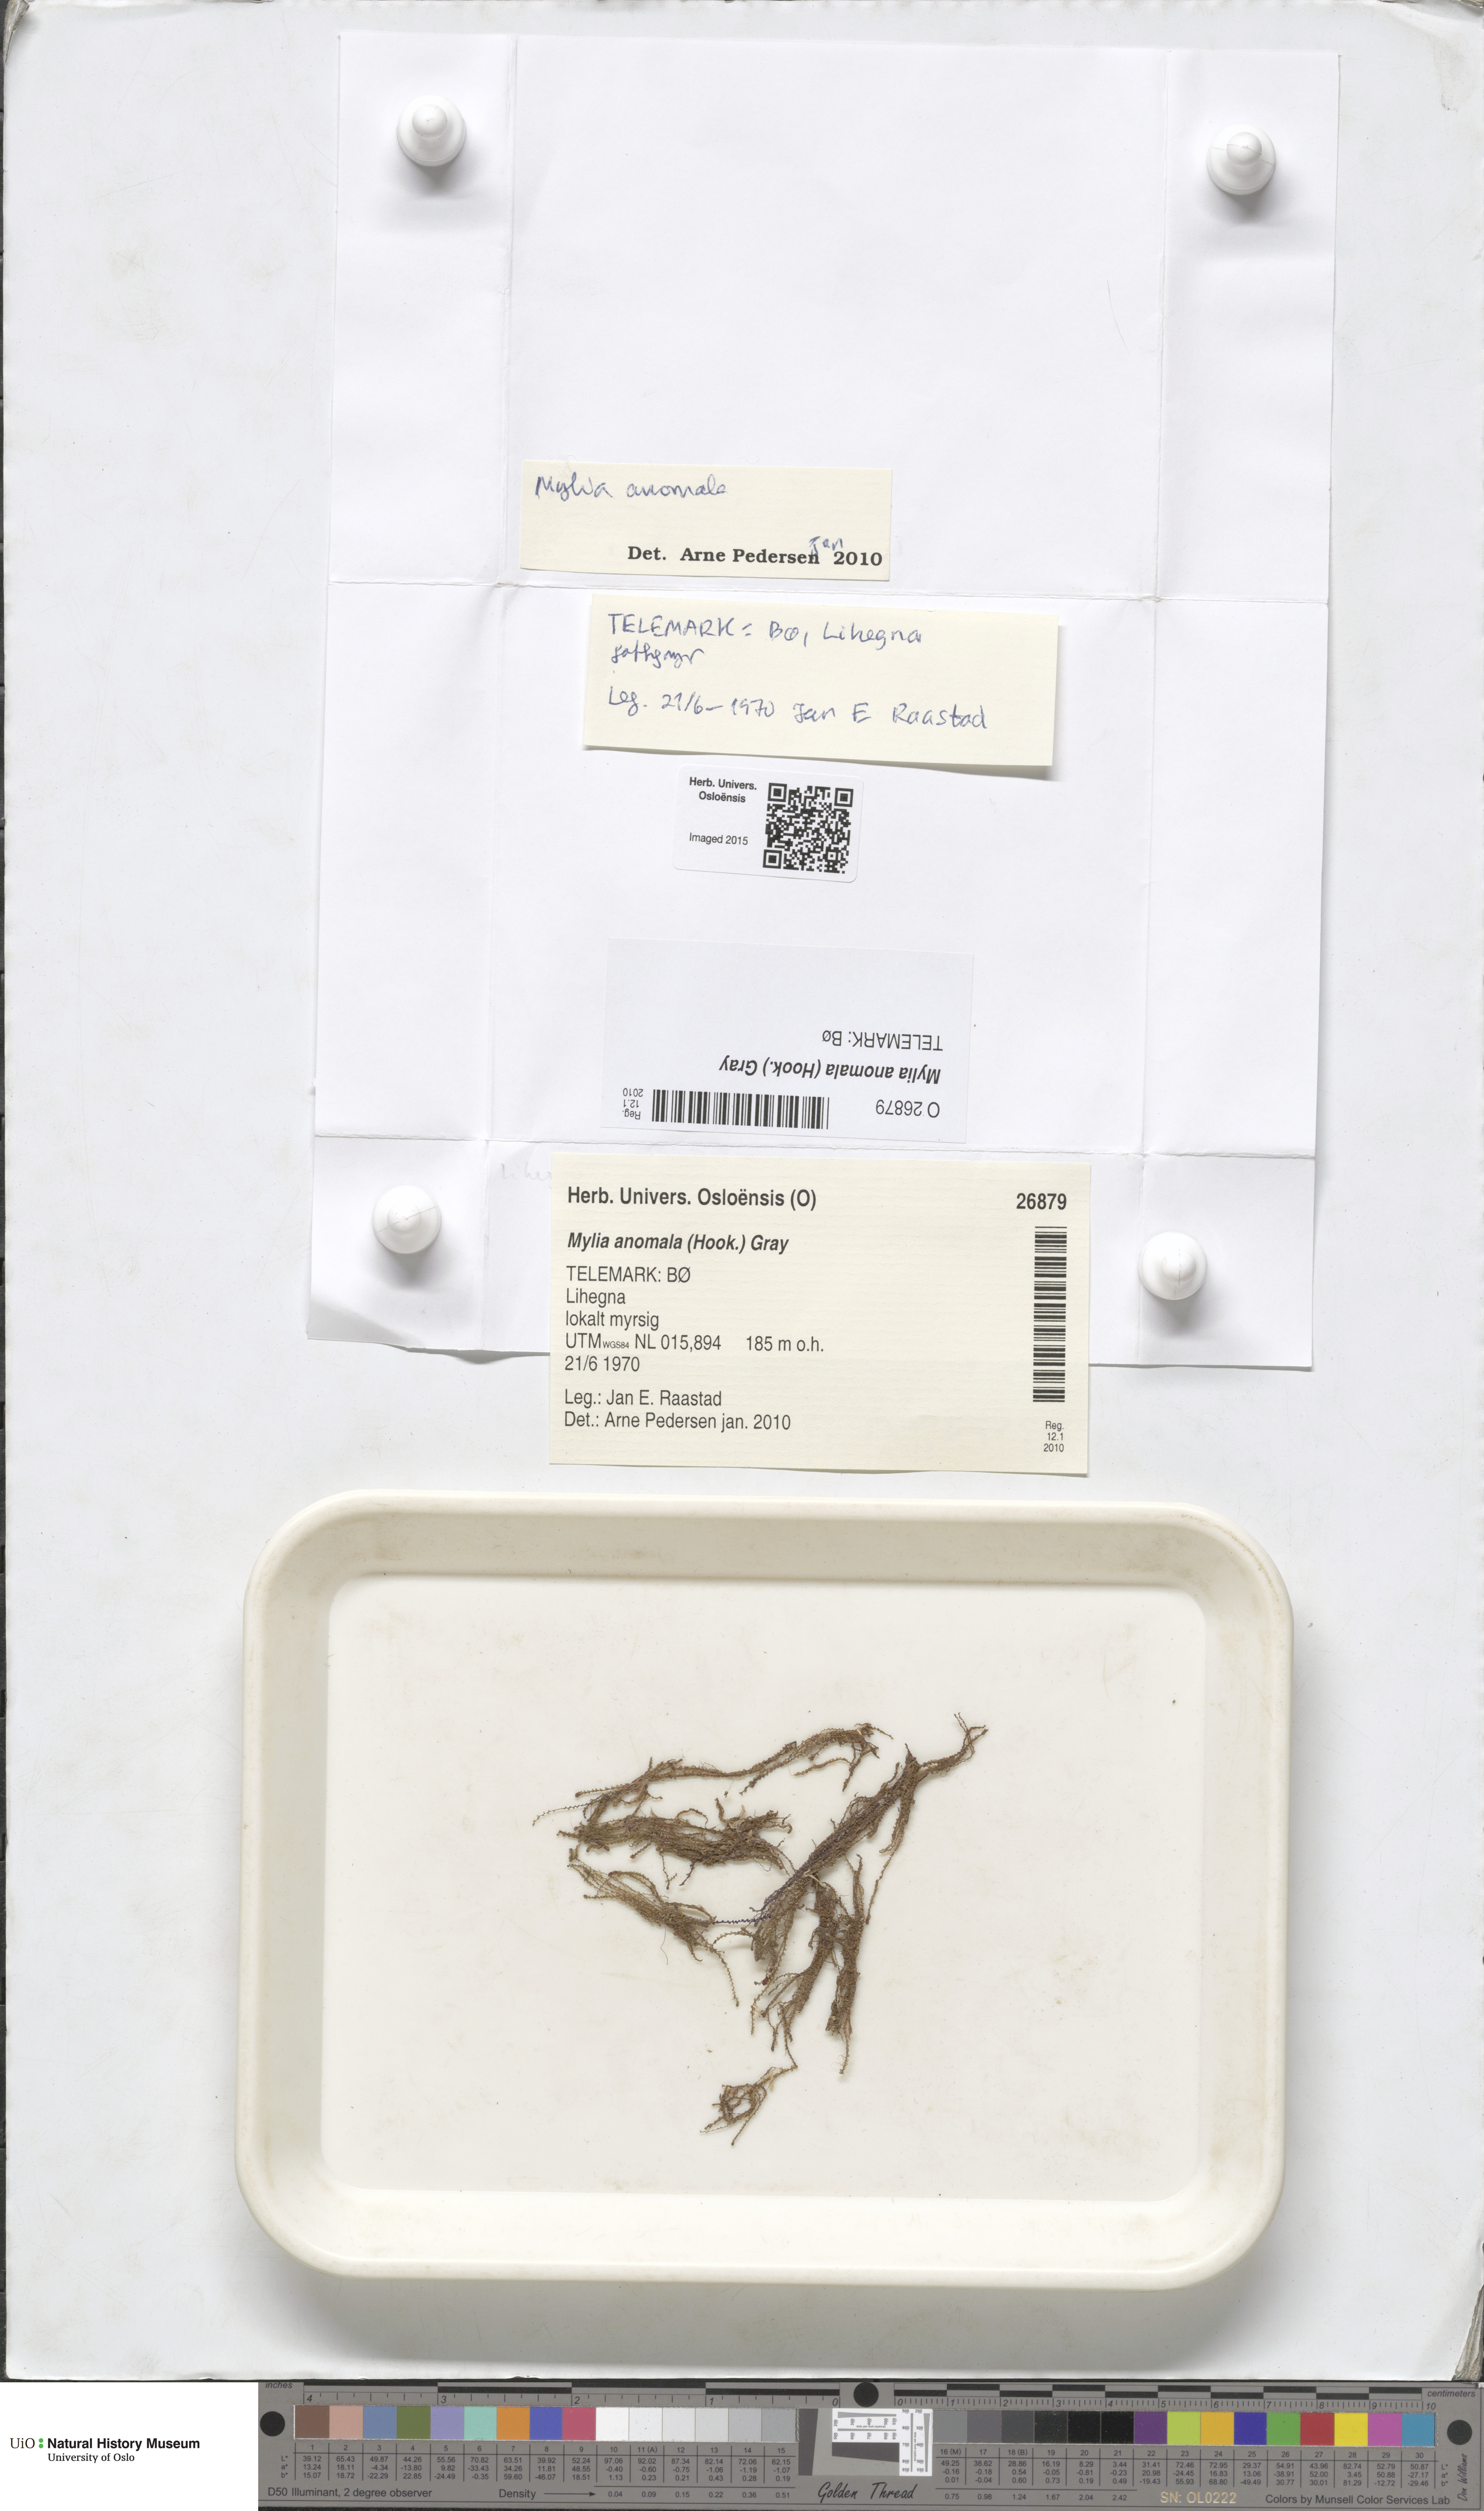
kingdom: Plantae
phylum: Marchantiophyta
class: Jungermanniopsida
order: Jungermanniales
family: Myliaceae
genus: Mylia
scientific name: Mylia anomala
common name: Anomalous flapwort
